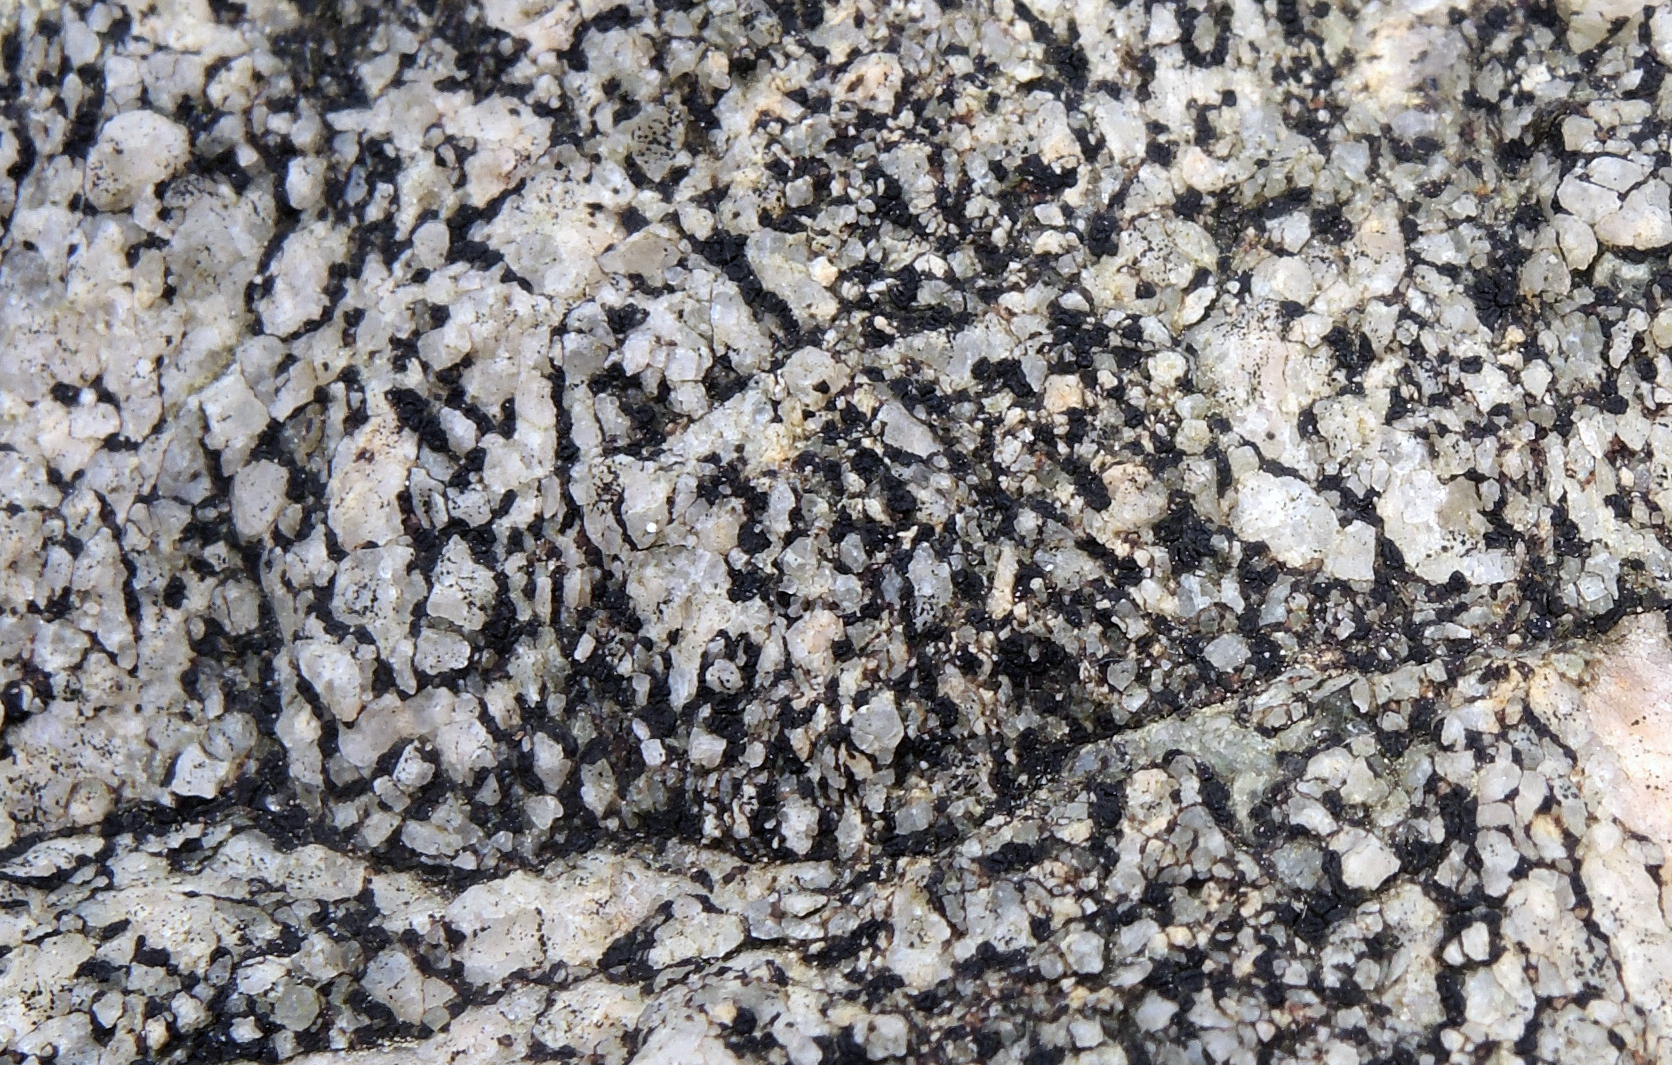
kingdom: Fungi
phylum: Ascomycota
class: Lecanoromycetes
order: Acarosporales
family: Acarosporaceae
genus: Acarospora
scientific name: Acarospora privigna
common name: sort foldekantlav
